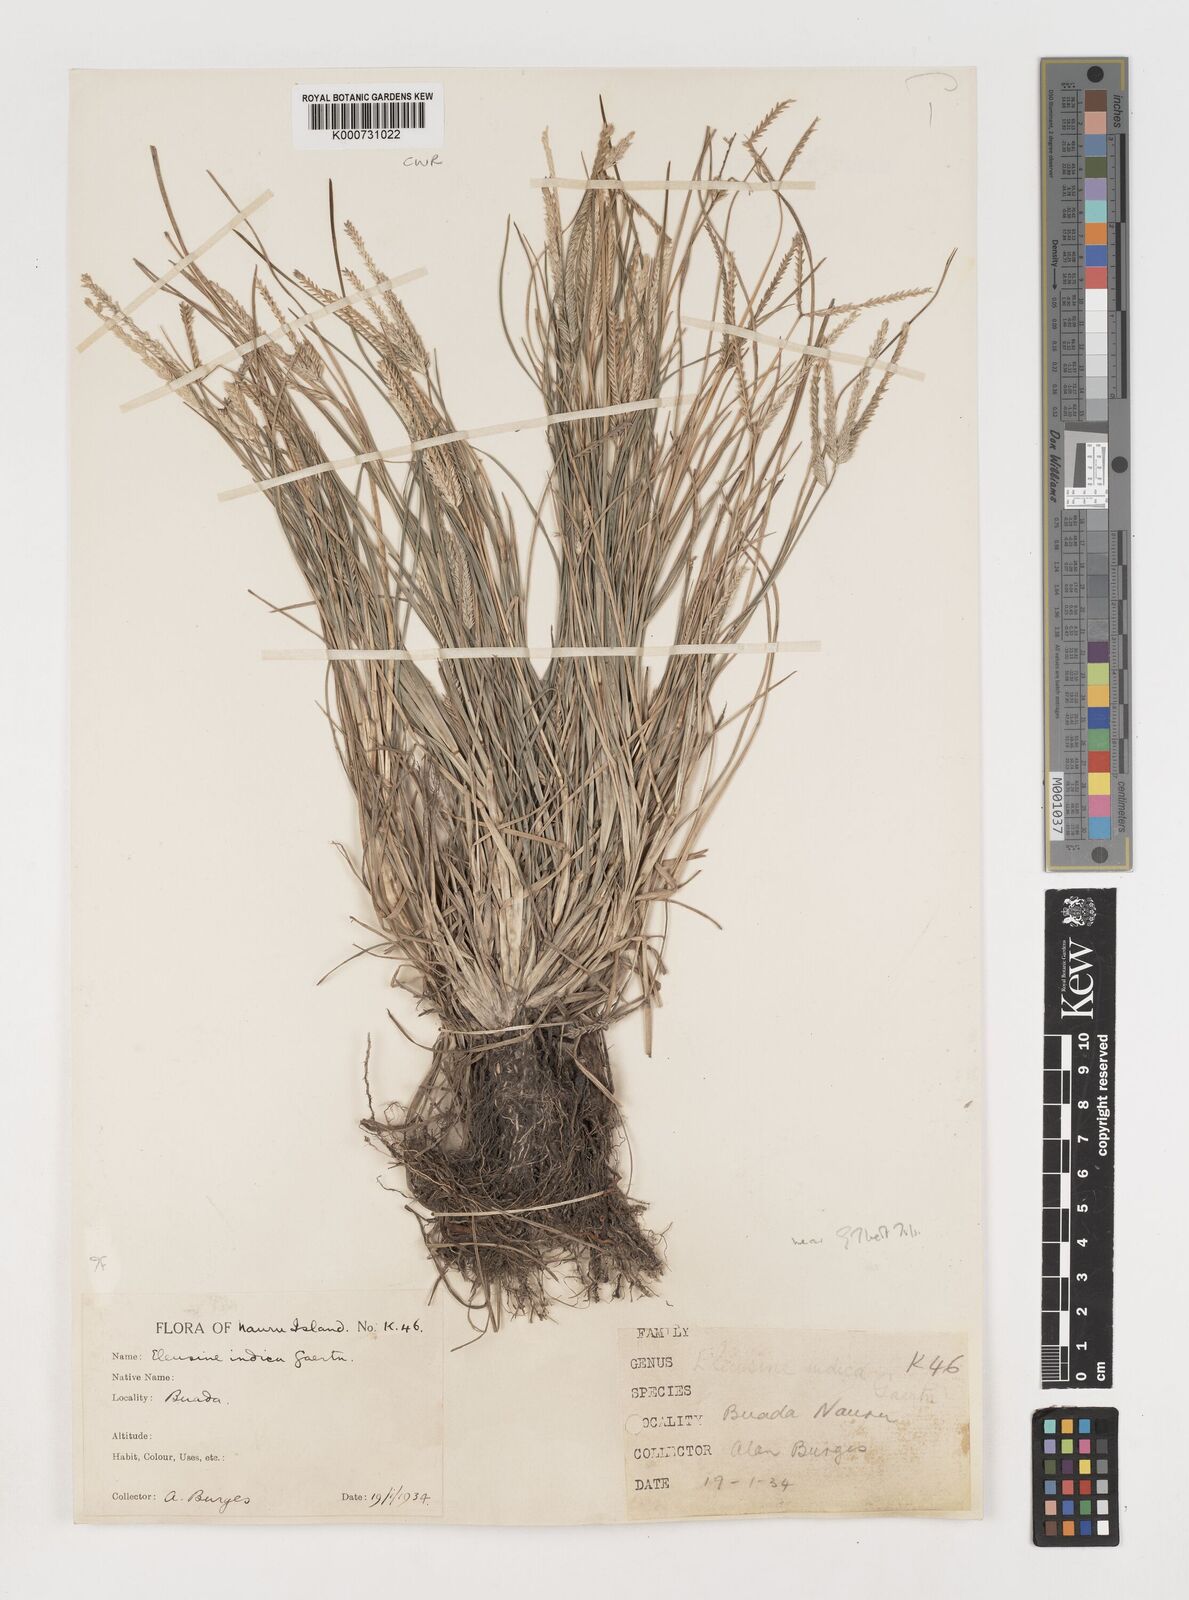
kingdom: Plantae
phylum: Tracheophyta
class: Liliopsida
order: Poales
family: Poaceae
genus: Eleusine
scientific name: Eleusine indica
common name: Yard-grass
